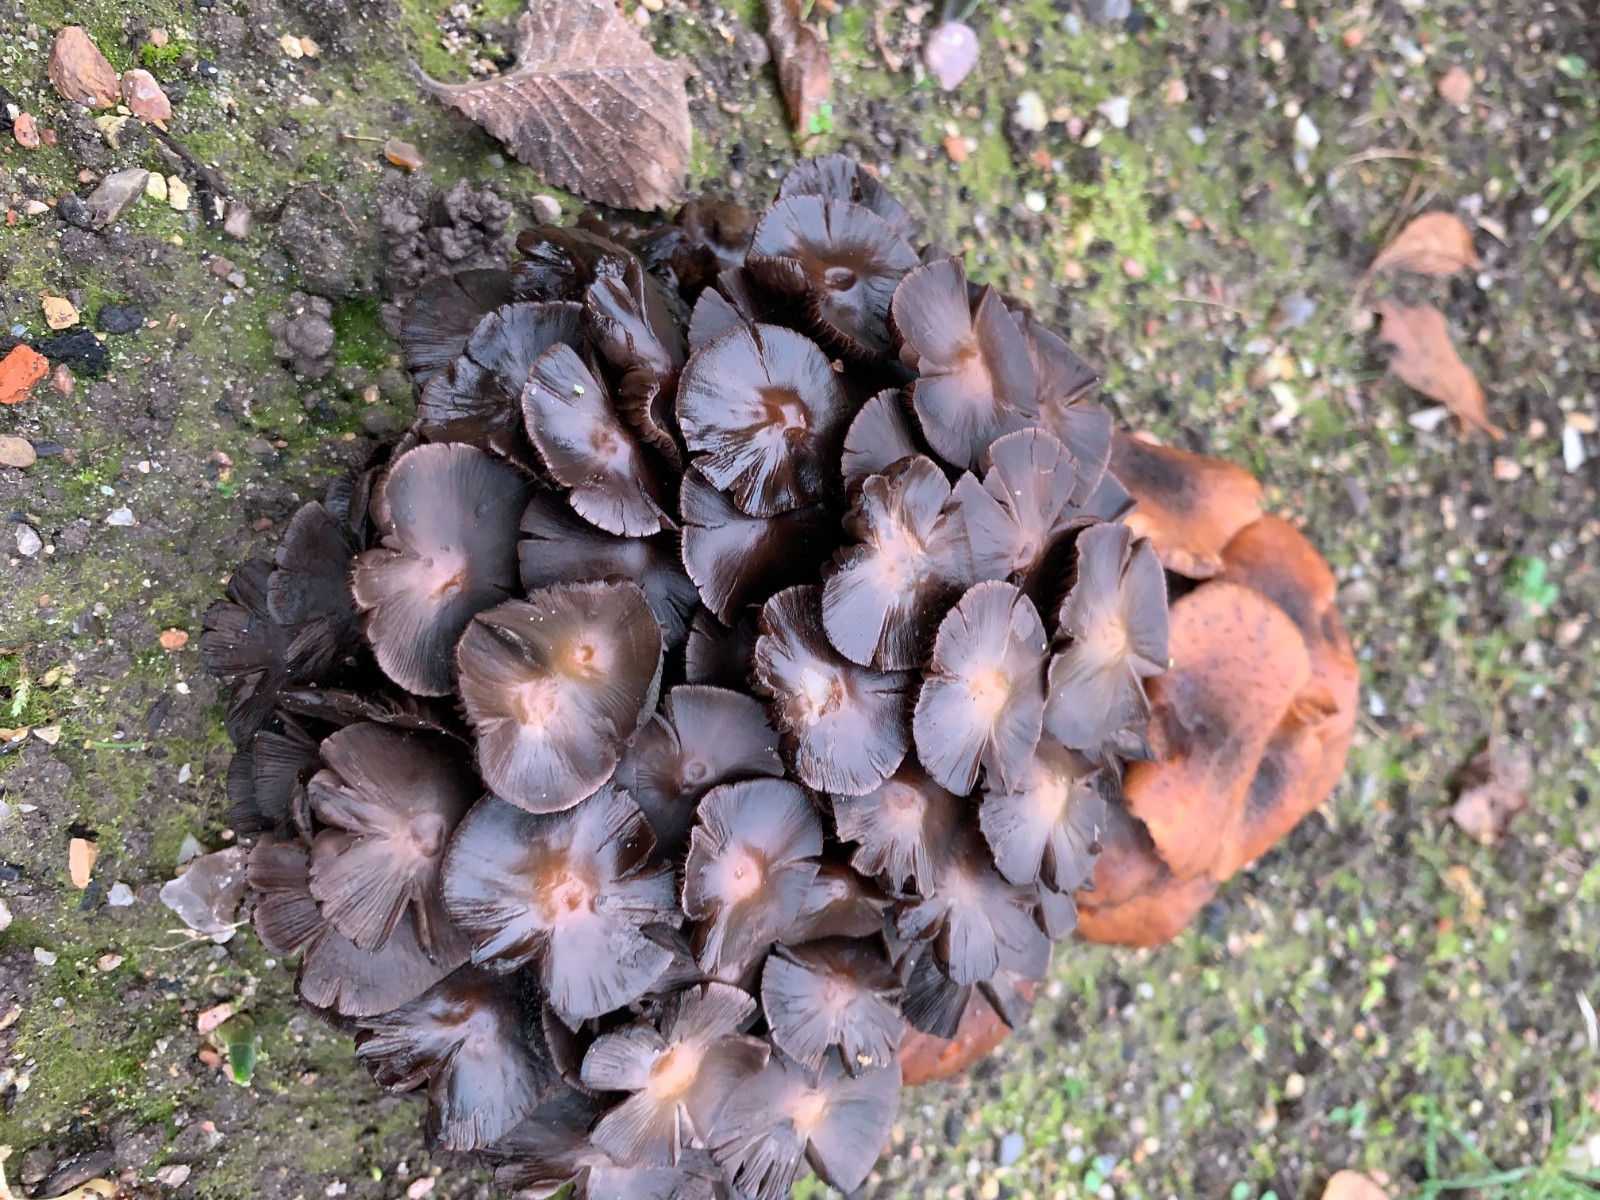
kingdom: Fungi
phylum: Basidiomycota
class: Agaricomycetes
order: Agaricales
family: Psathyrellaceae
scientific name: Psathyrellaceae
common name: mørkhatfamilien
